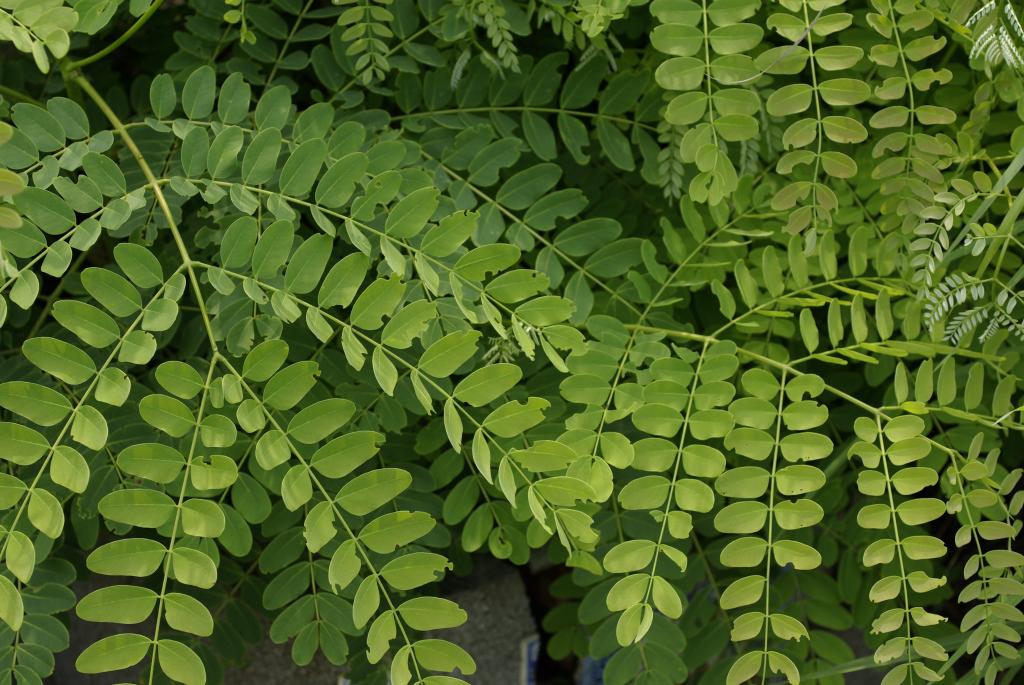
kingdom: Plantae
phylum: Tracheophyta
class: Magnoliopsida
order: Fabales
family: Fabaceae
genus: Albizia
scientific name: Albizia procera
